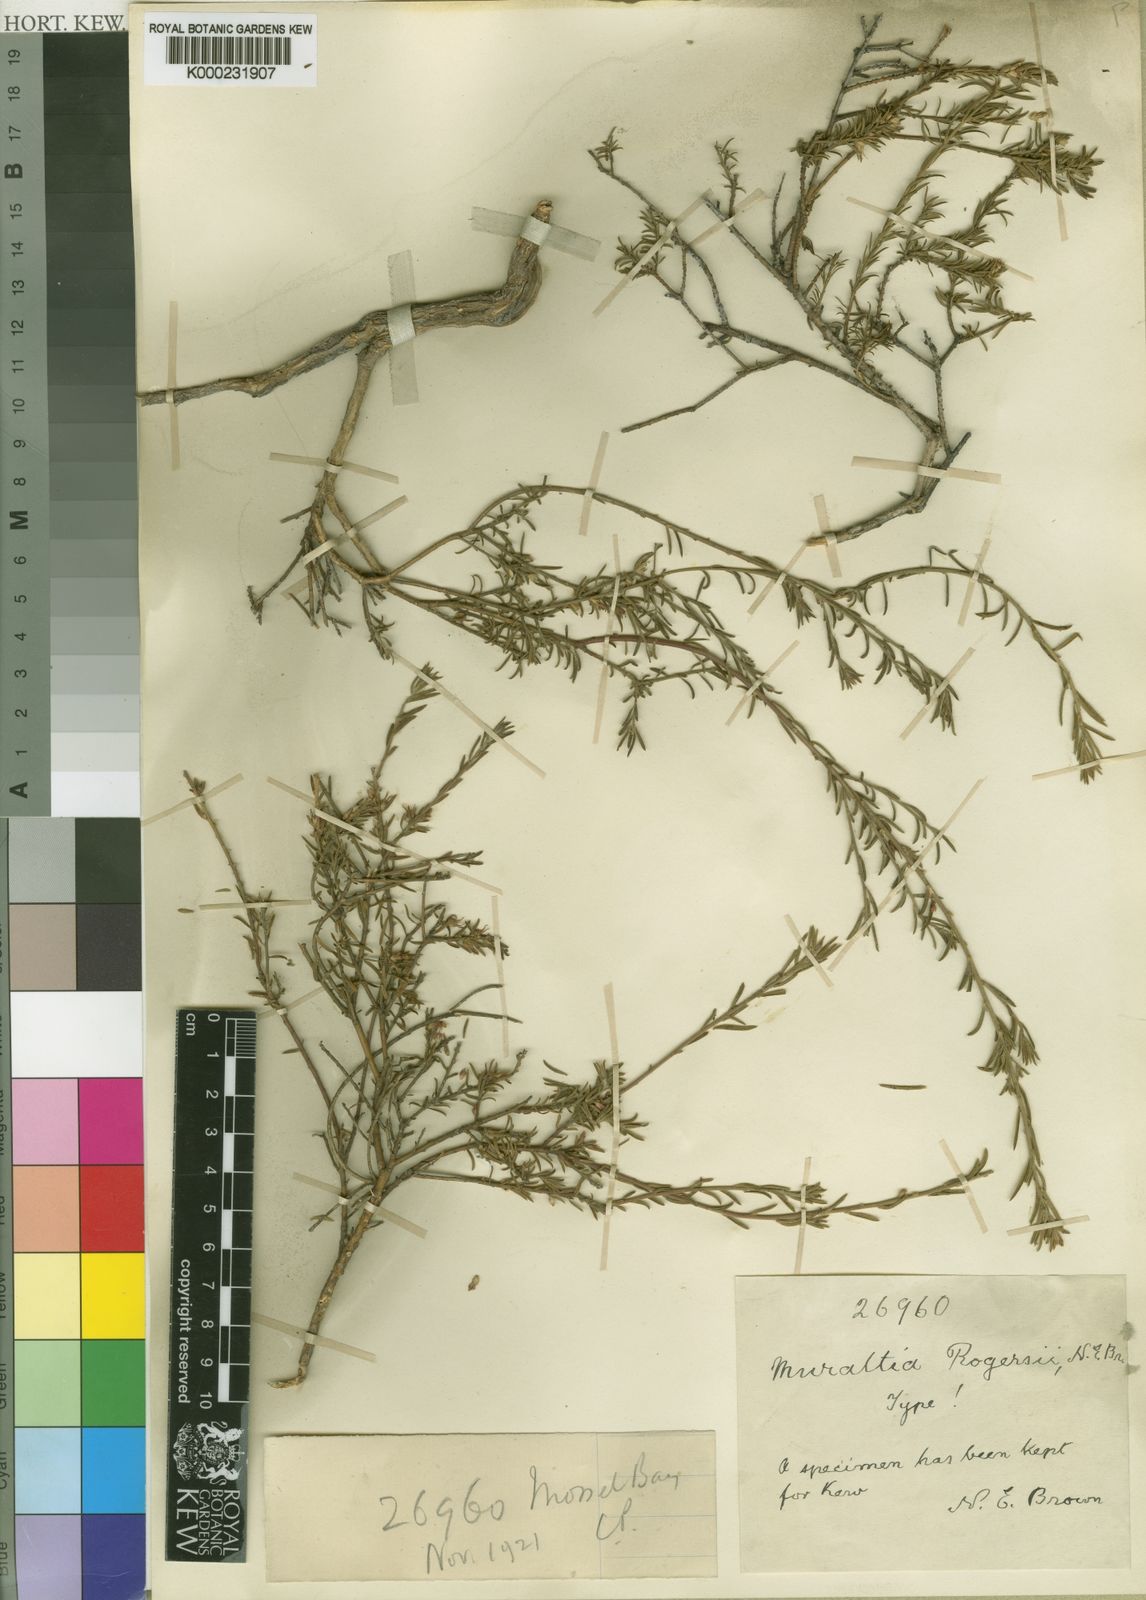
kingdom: Plantae
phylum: Tracheophyta
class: Magnoliopsida
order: Fabales
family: Polygalaceae
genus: Muraltia
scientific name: Muraltia empleuridioides
